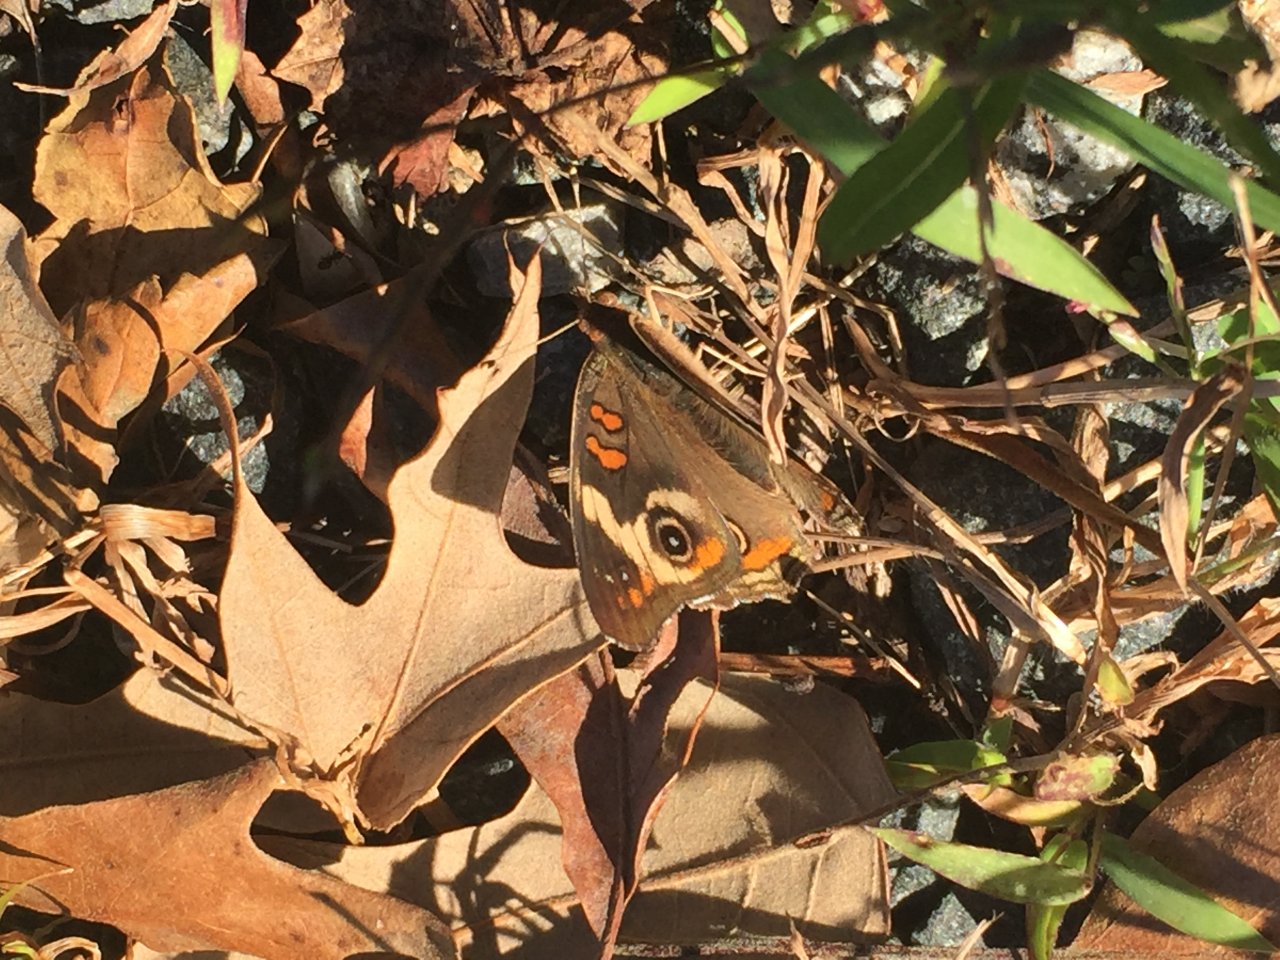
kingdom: Animalia
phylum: Arthropoda
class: Insecta
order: Lepidoptera
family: Nymphalidae
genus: Junonia
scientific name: Junonia coenia
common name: Common Buckeye
